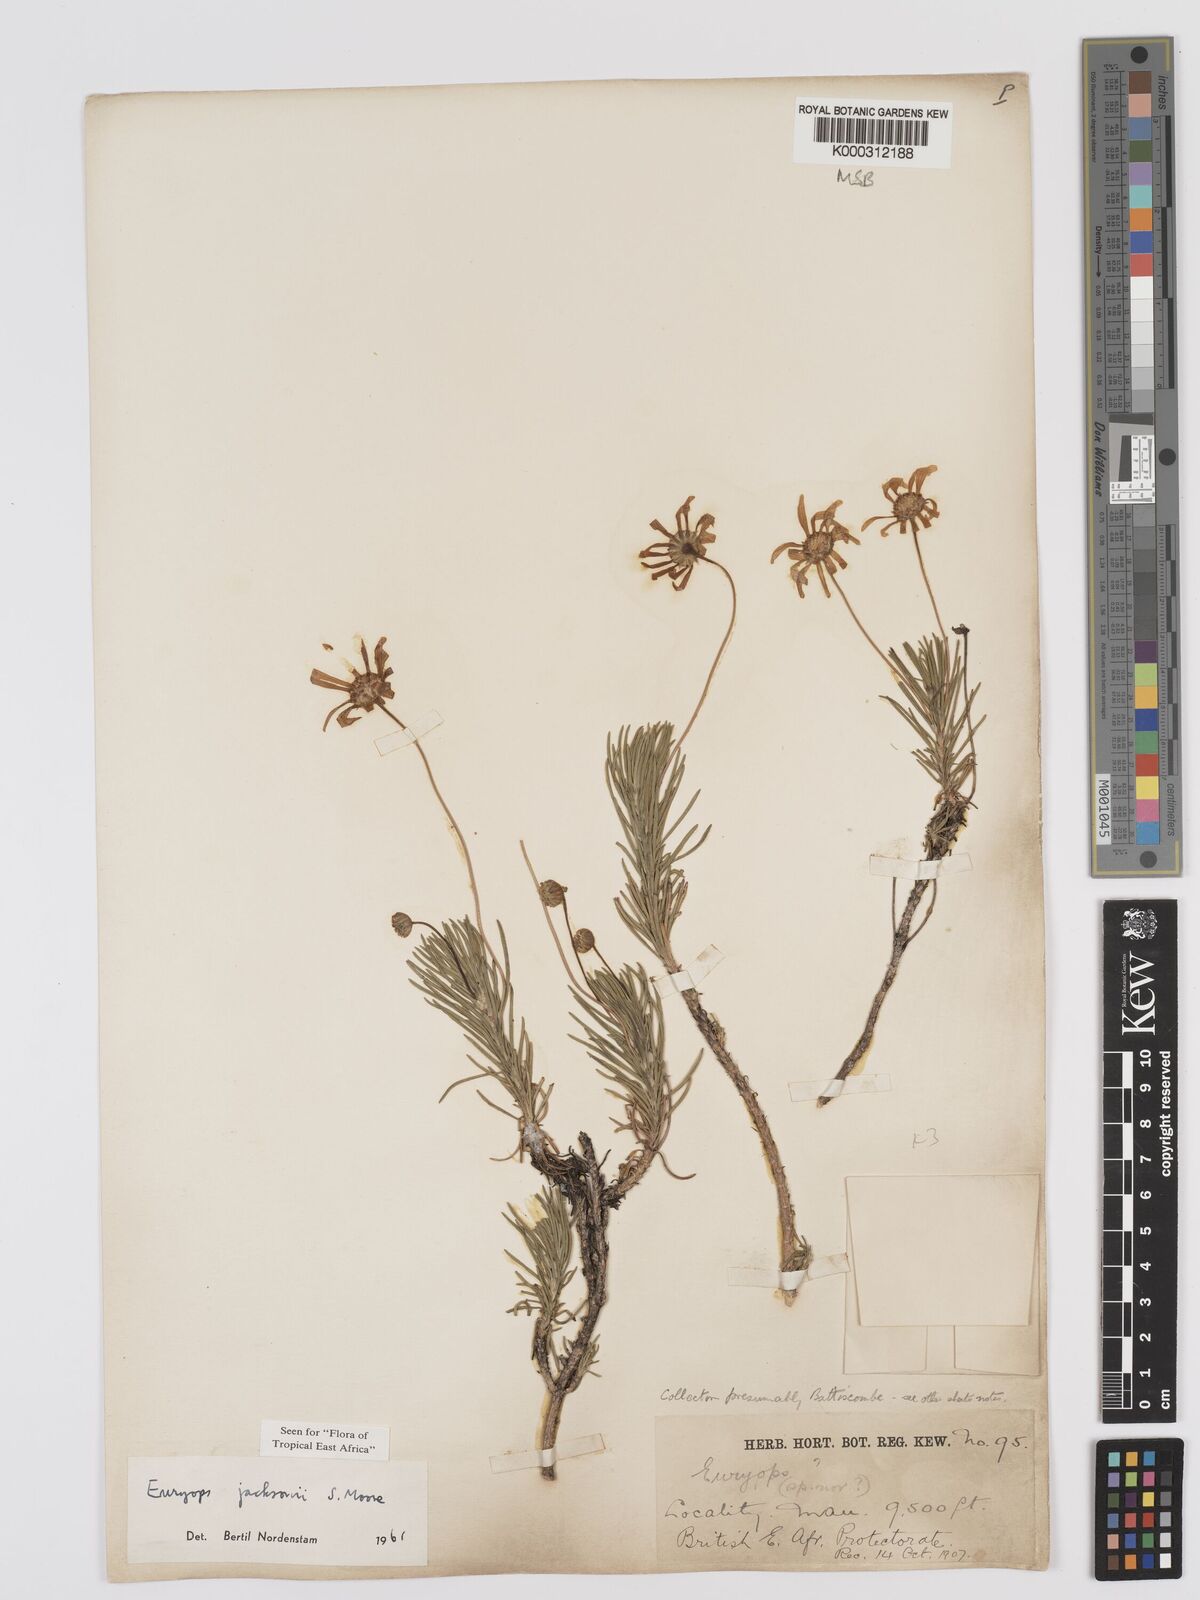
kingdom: Plantae
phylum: Tracheophyta
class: Magnoliopsida
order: Asterales
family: Asteraceae
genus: Euryops
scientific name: Euryops jacksonii
